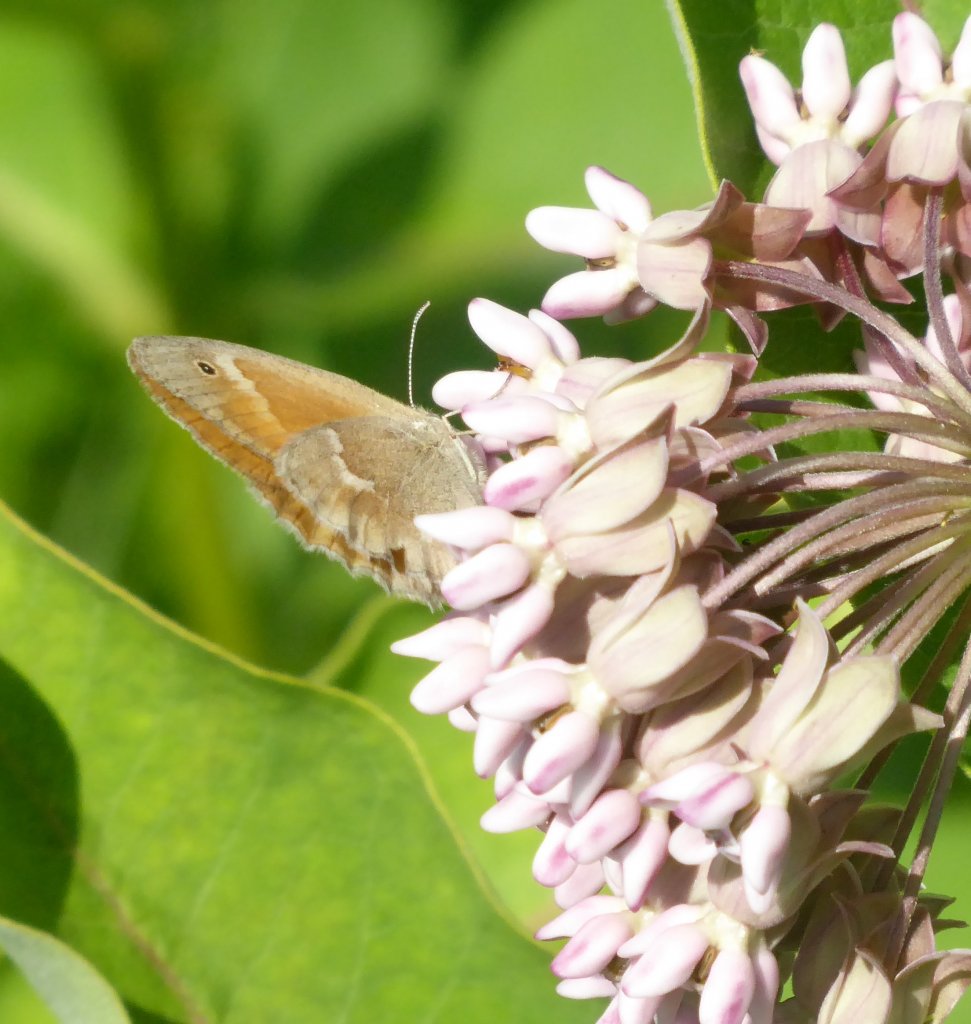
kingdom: Animalia
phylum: Arthropoda
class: Insecta
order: Lepidoptera
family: Nymphalidae
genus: Coenonympha
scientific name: Coenonympha tullia
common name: Large Heath
